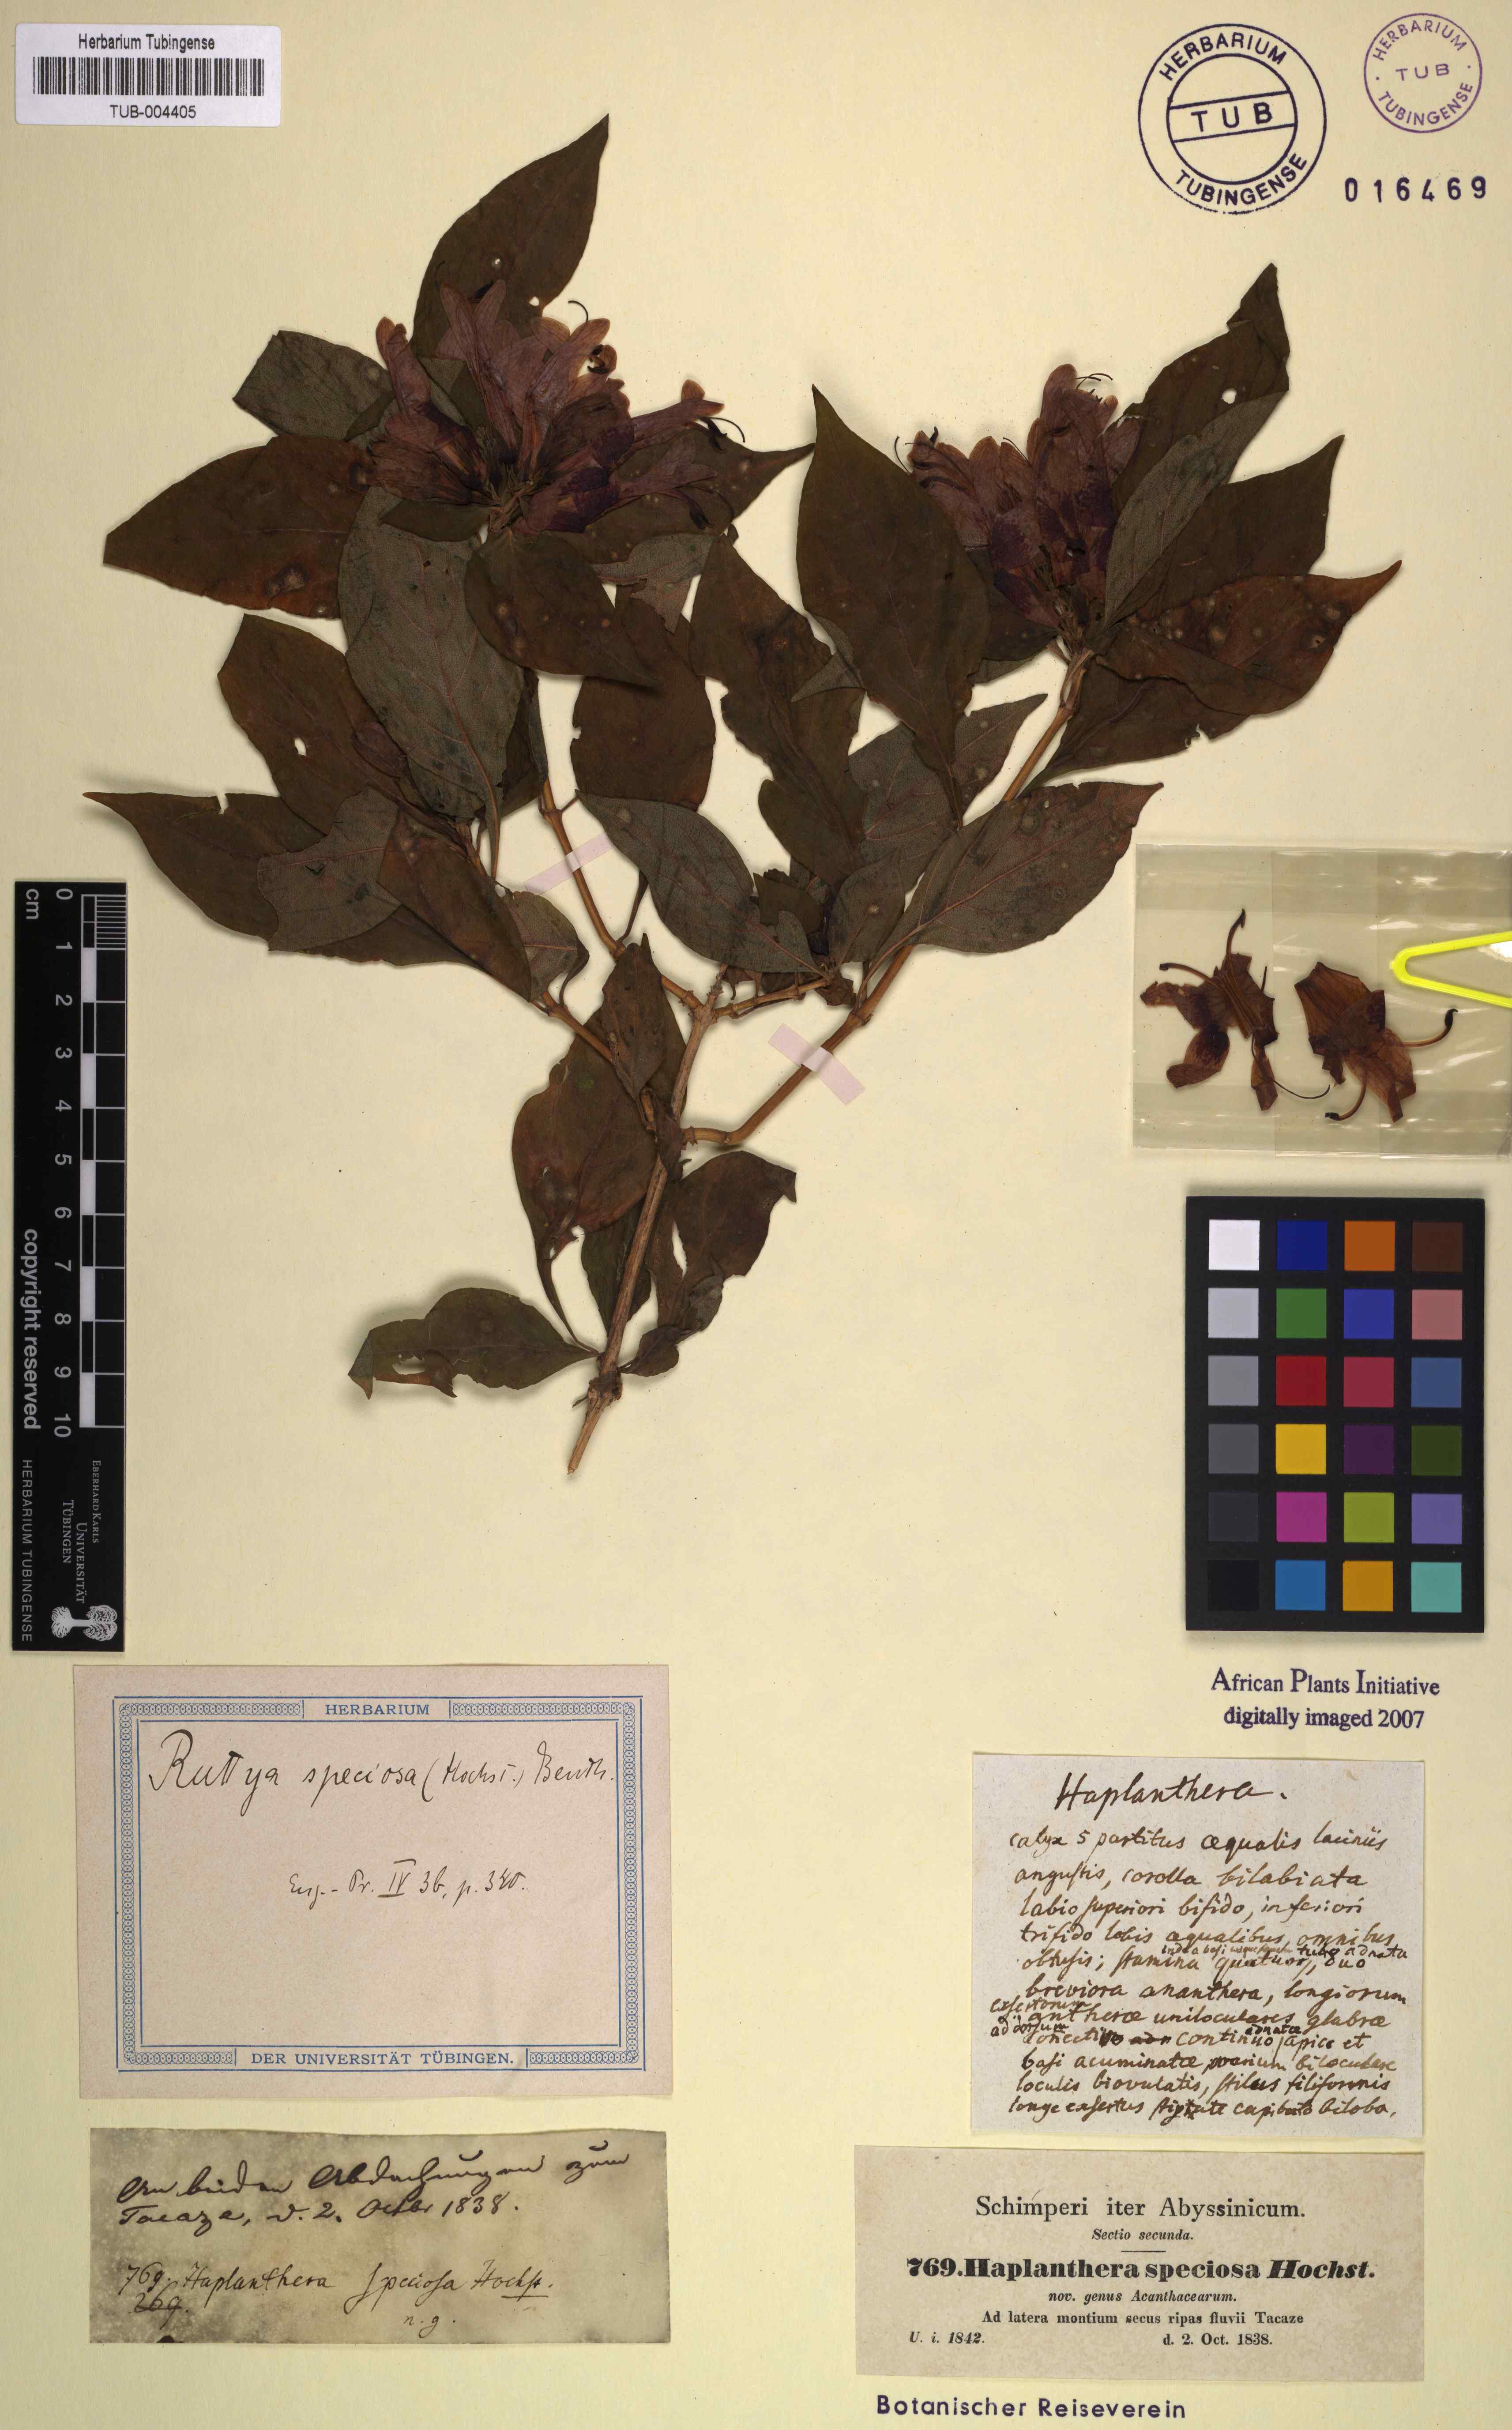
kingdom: Plantae
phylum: Tracheophyta
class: Magnoliopsida
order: Lamiales
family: Acanthaceae
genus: Ruttya
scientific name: Ruttya speciosa
